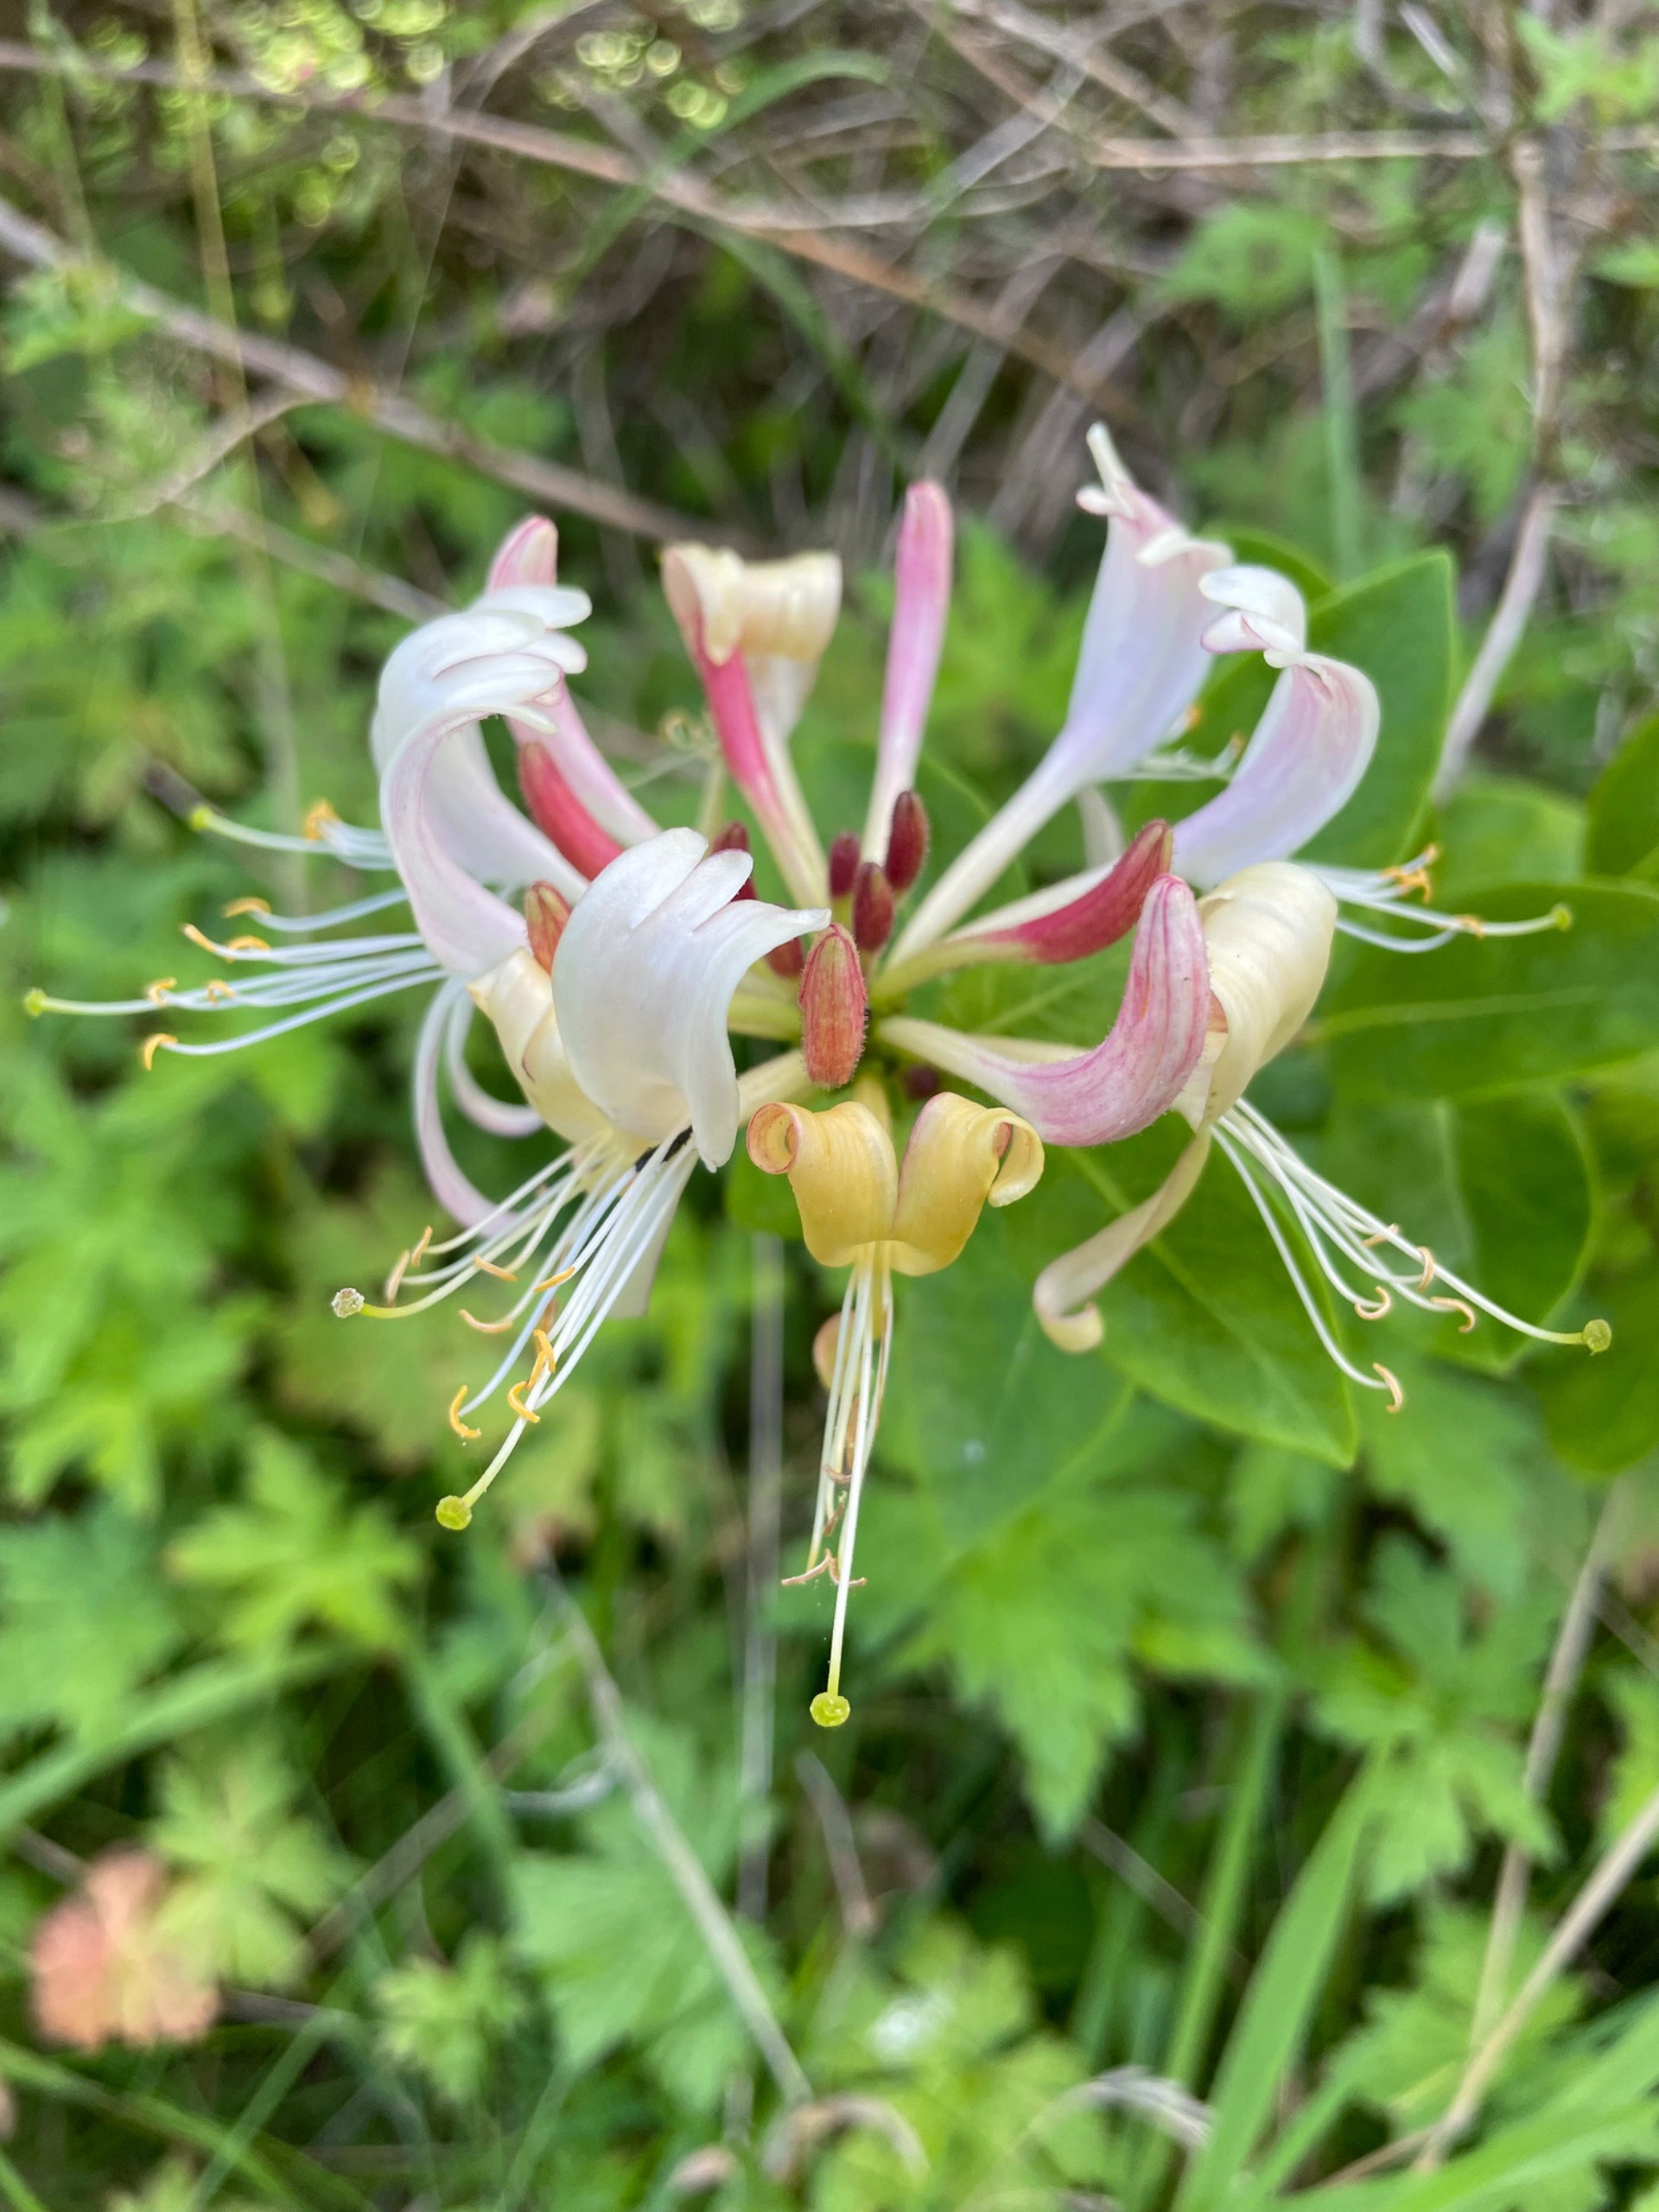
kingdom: Plantae
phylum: Tracheophyta
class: Magnoliopsida
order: Dipsacales
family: Caprifoliaceae
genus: Lonicera
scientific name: Lonicera periclymenum
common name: Almindelig gedeblad
